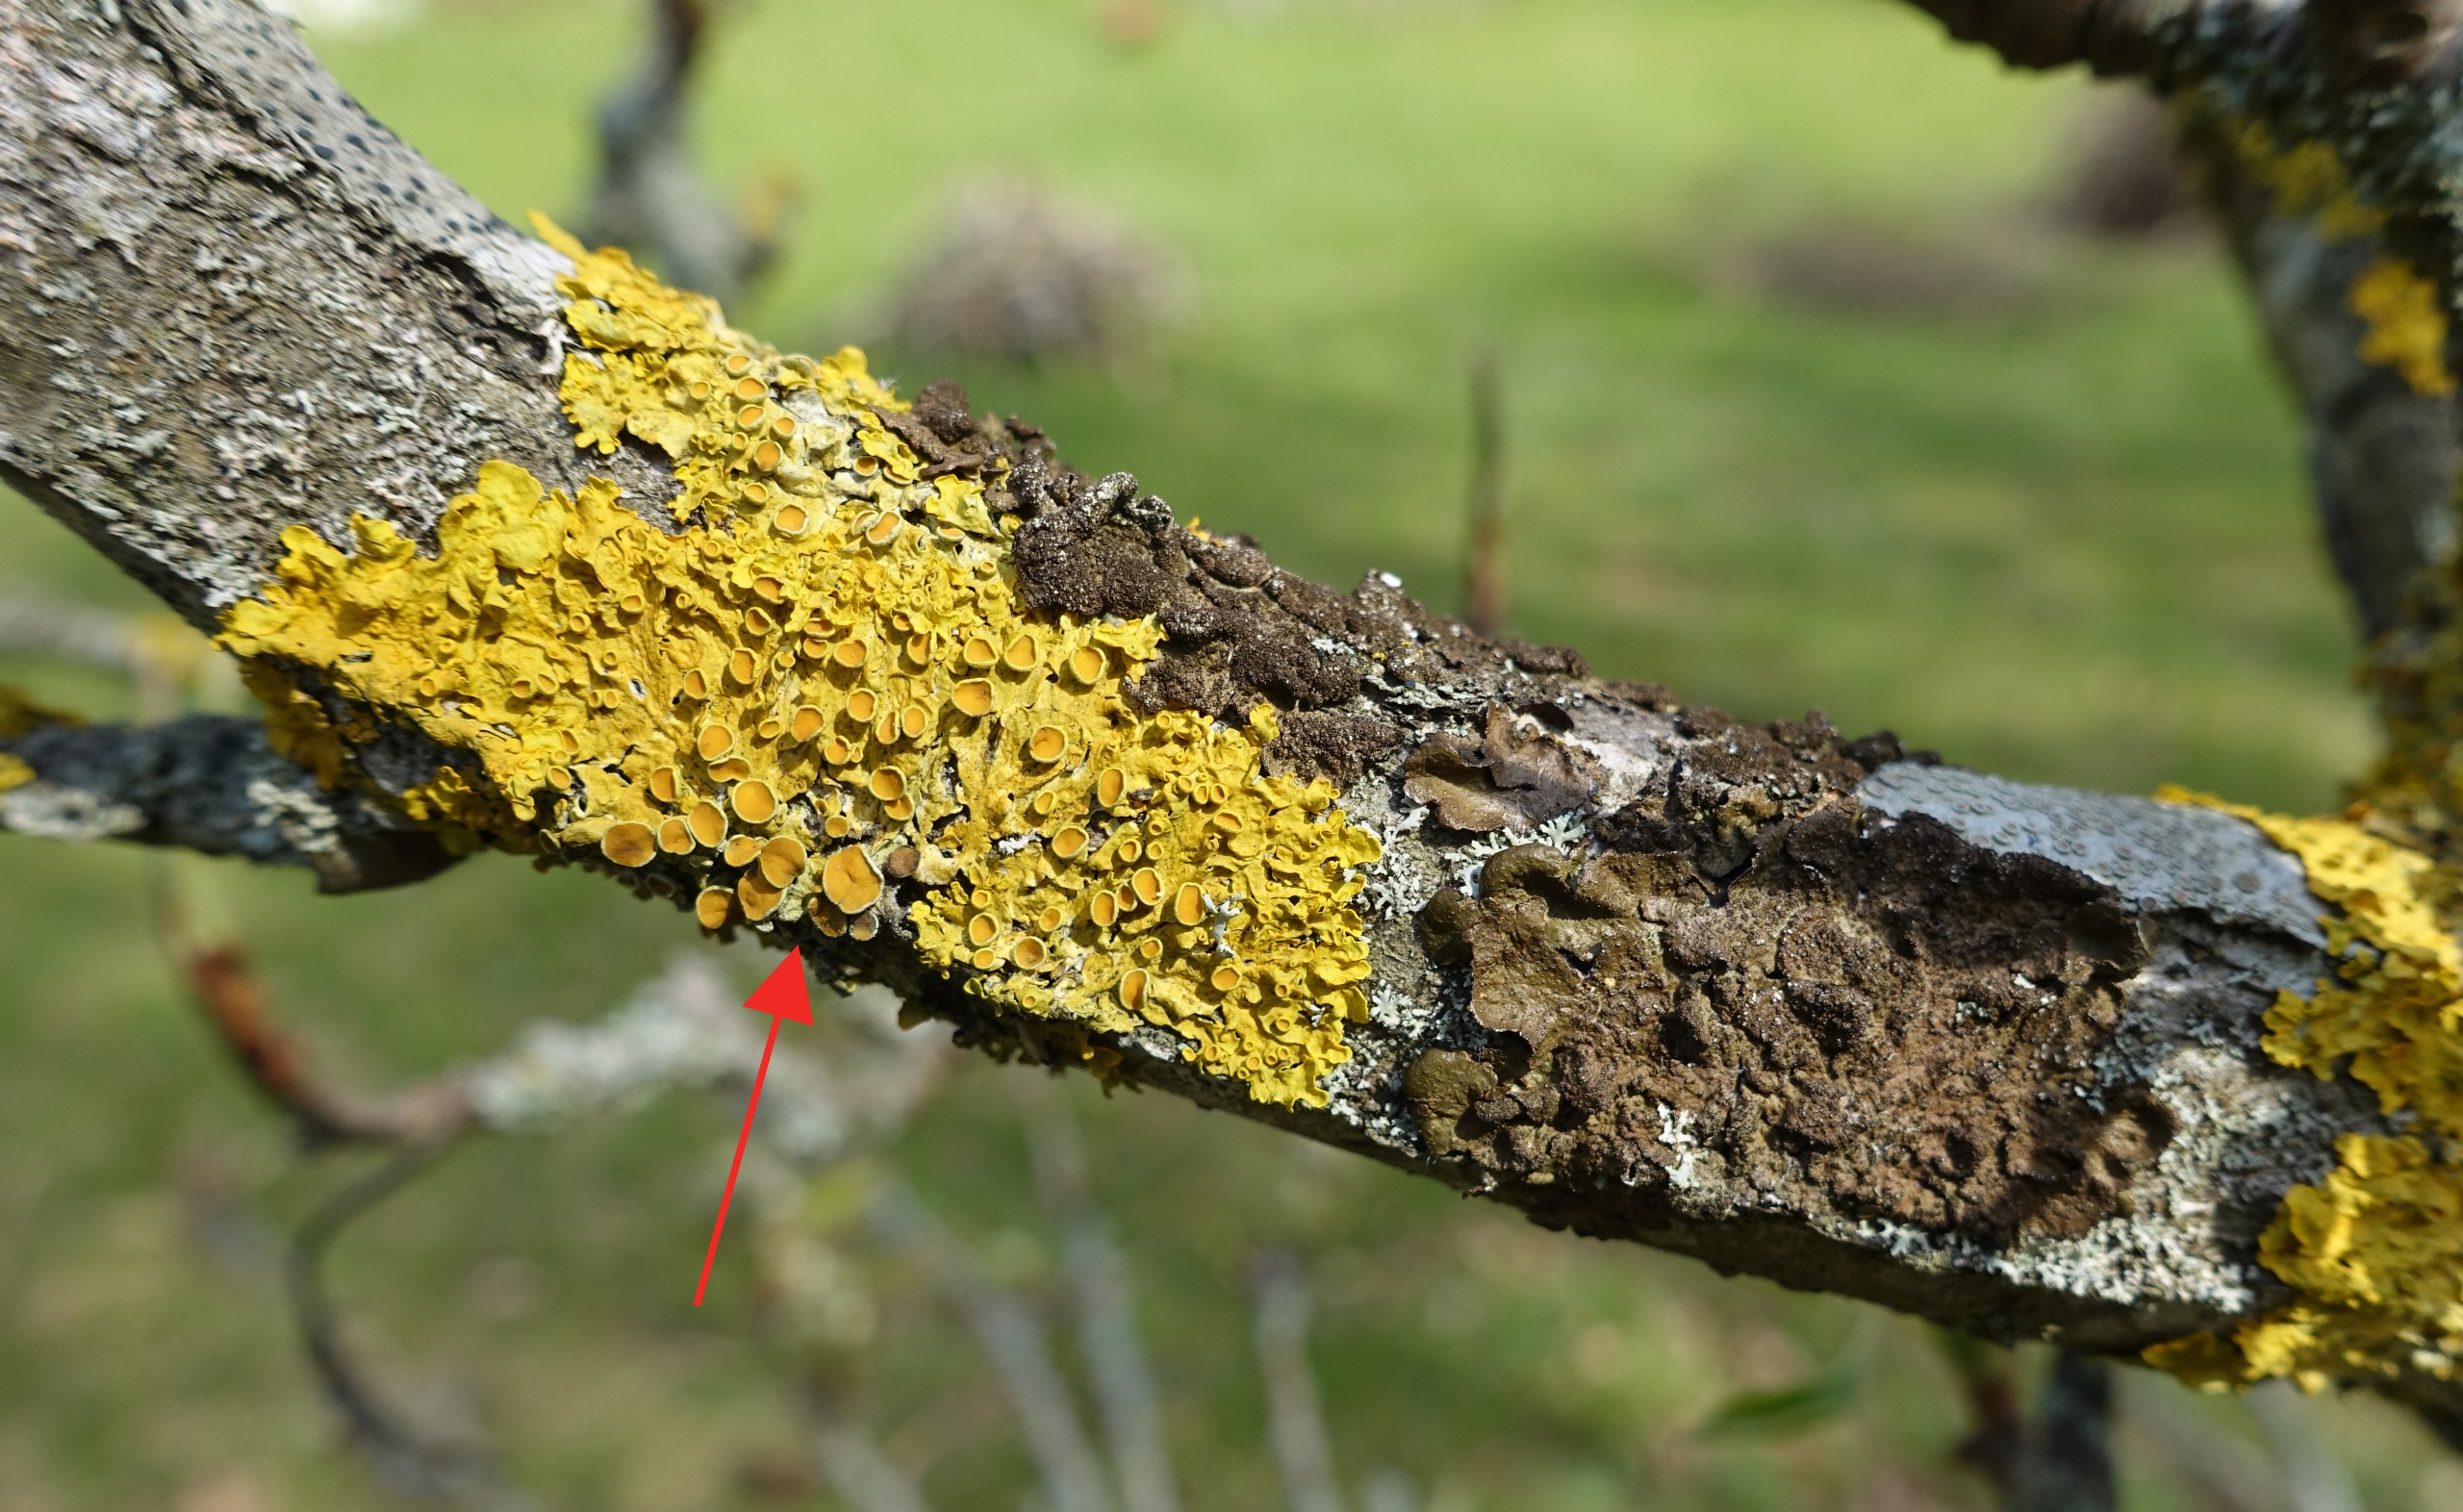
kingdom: Fungi
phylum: Ascomycota
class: Lecanoromycetes
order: Teloschistales
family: Teloschistaceae
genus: Xanthoria
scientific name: Xanthoria parietina
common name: Almindelig væggelav
